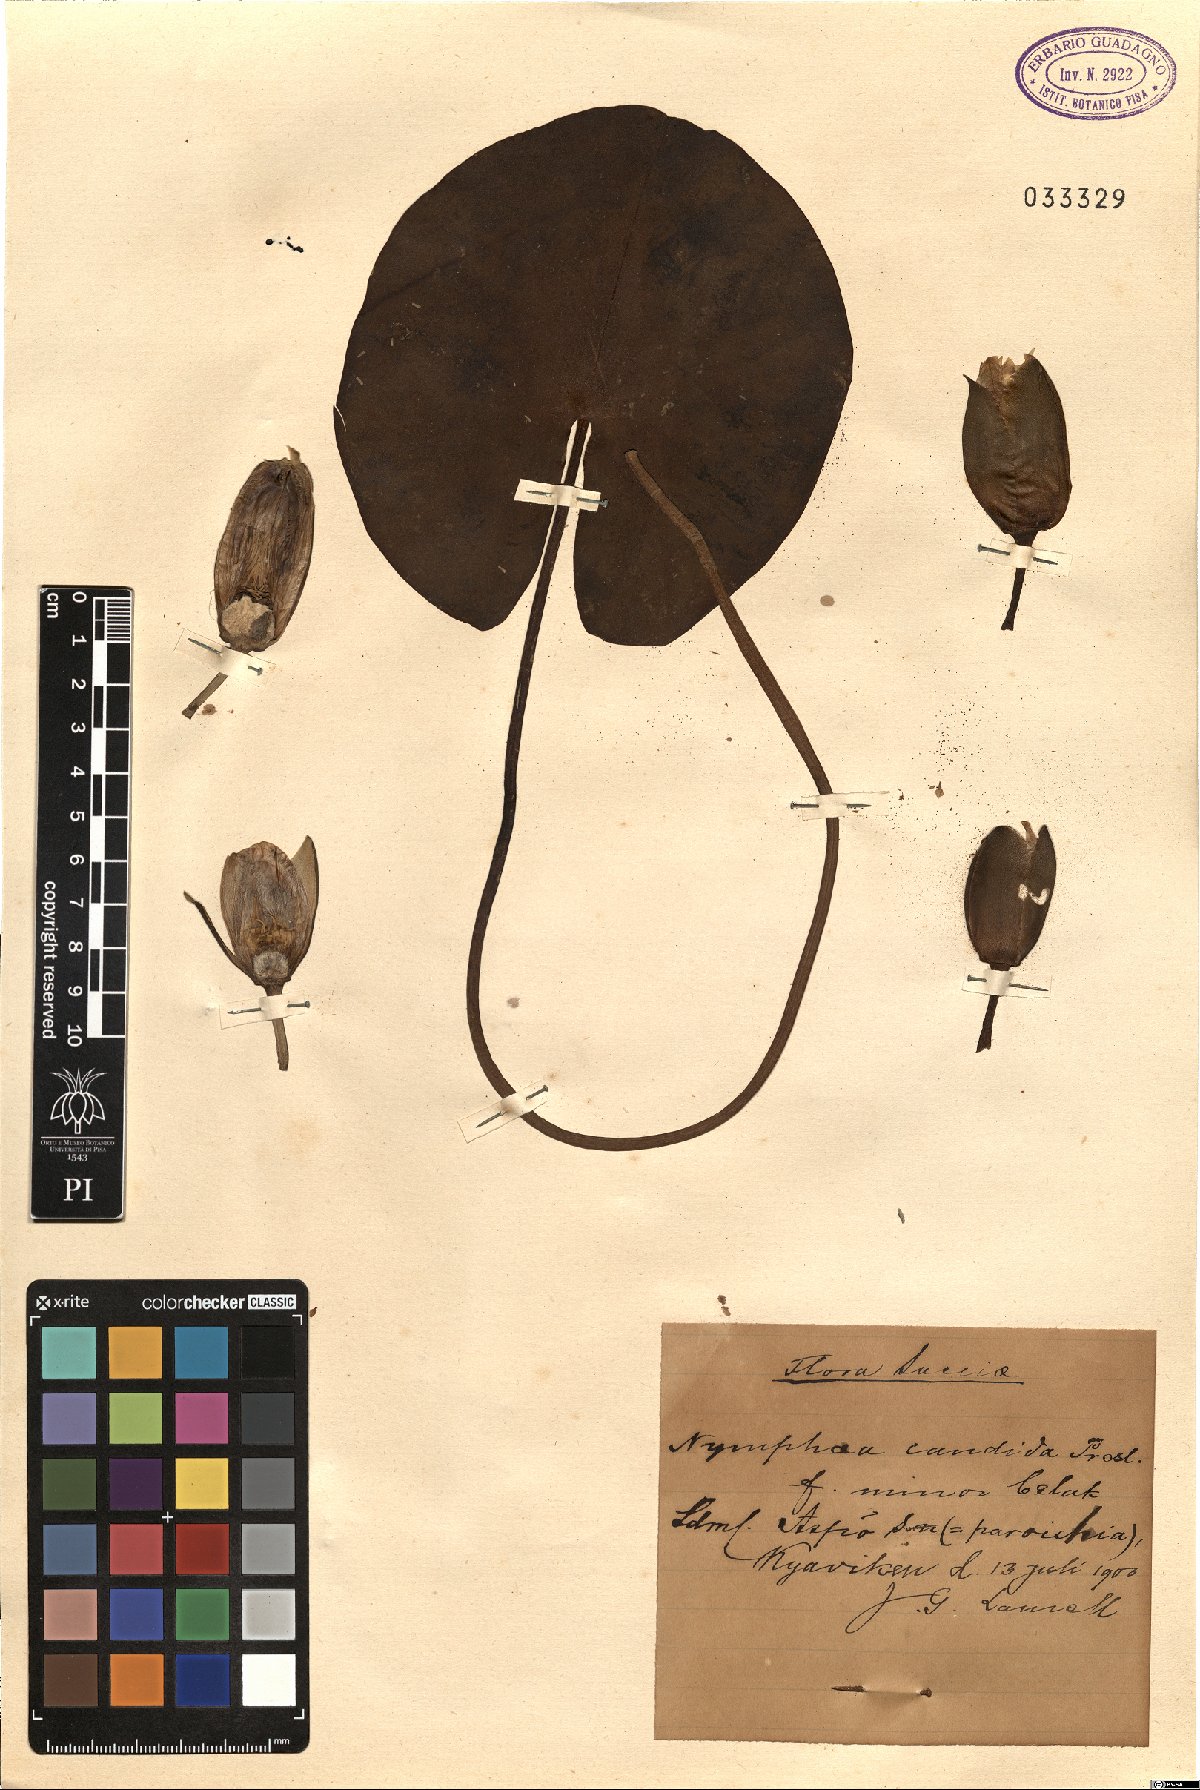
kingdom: Plantae
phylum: Tracheophyta
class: Magnoliopsida
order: Nymphaeales
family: Nymphaeaceae
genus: Nymphaea
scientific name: Nymphaea candida
